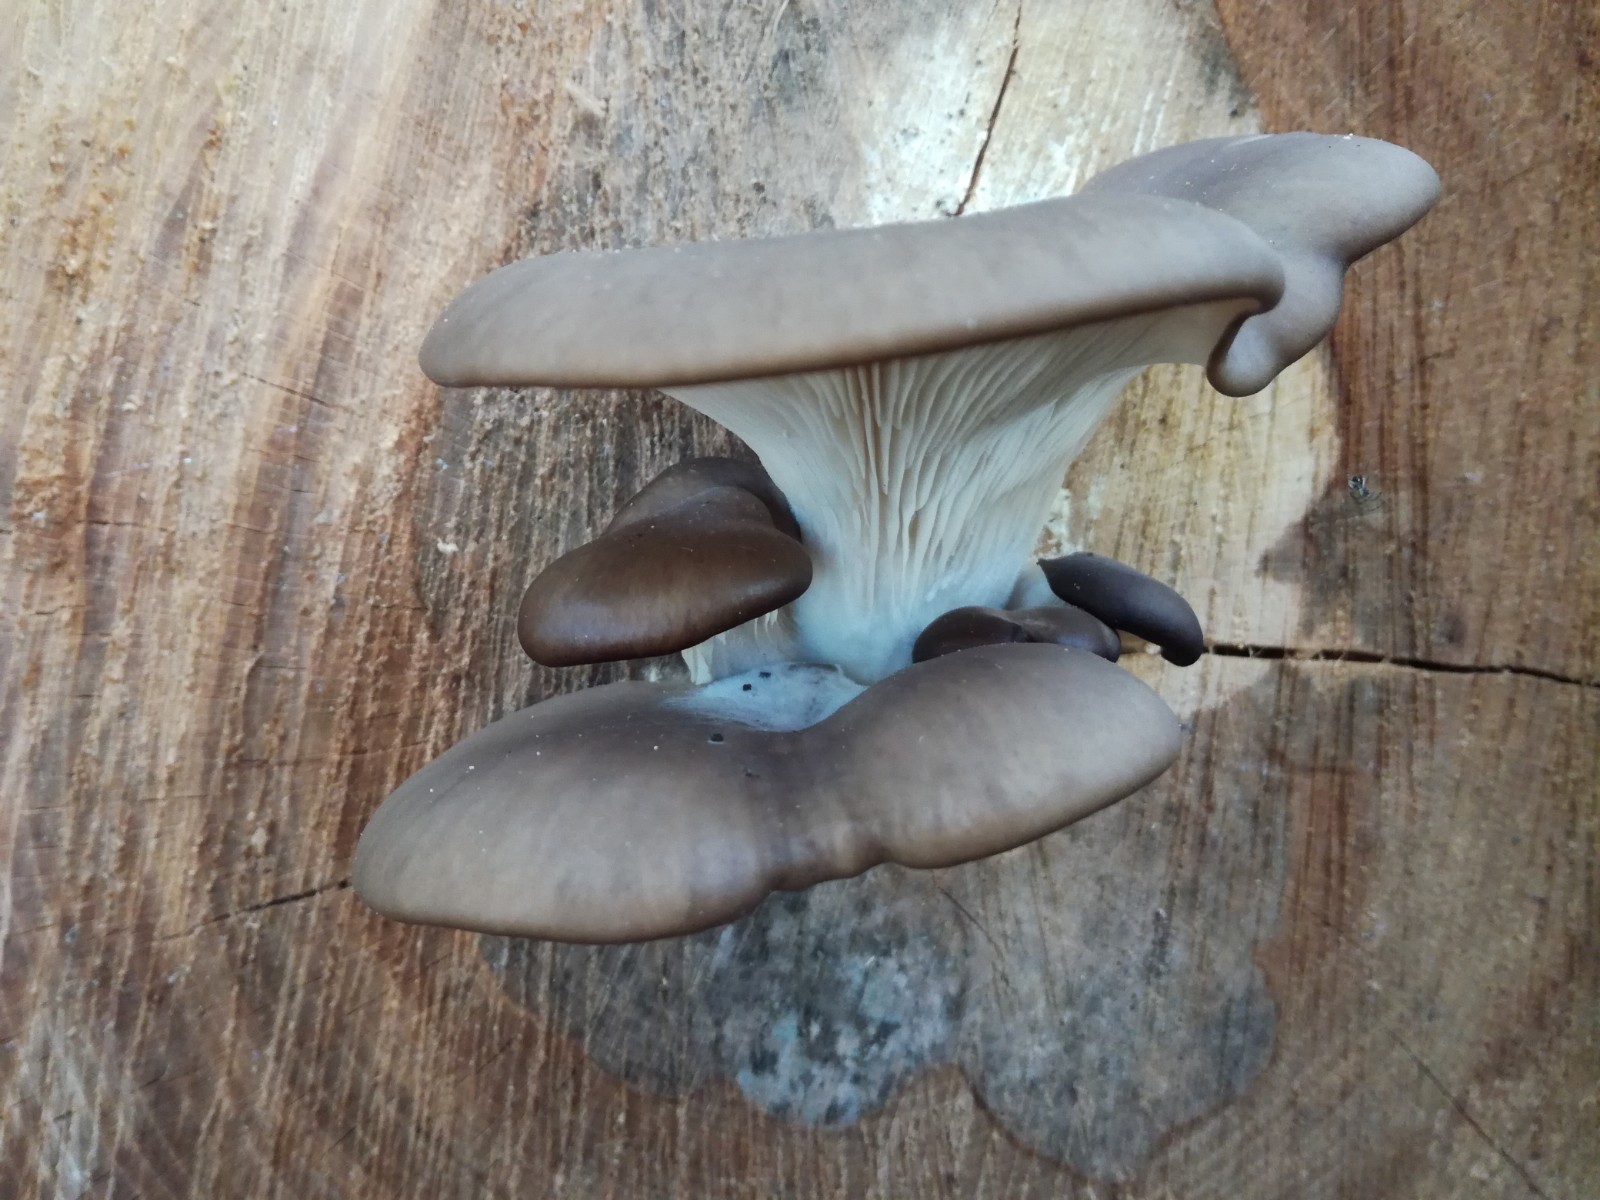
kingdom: Fungi
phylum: Basidiomycota
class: Agaricomycetes
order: Agaricales
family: Pleurotaceae
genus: Pleurotus
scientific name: Pleurotus ostreatus
